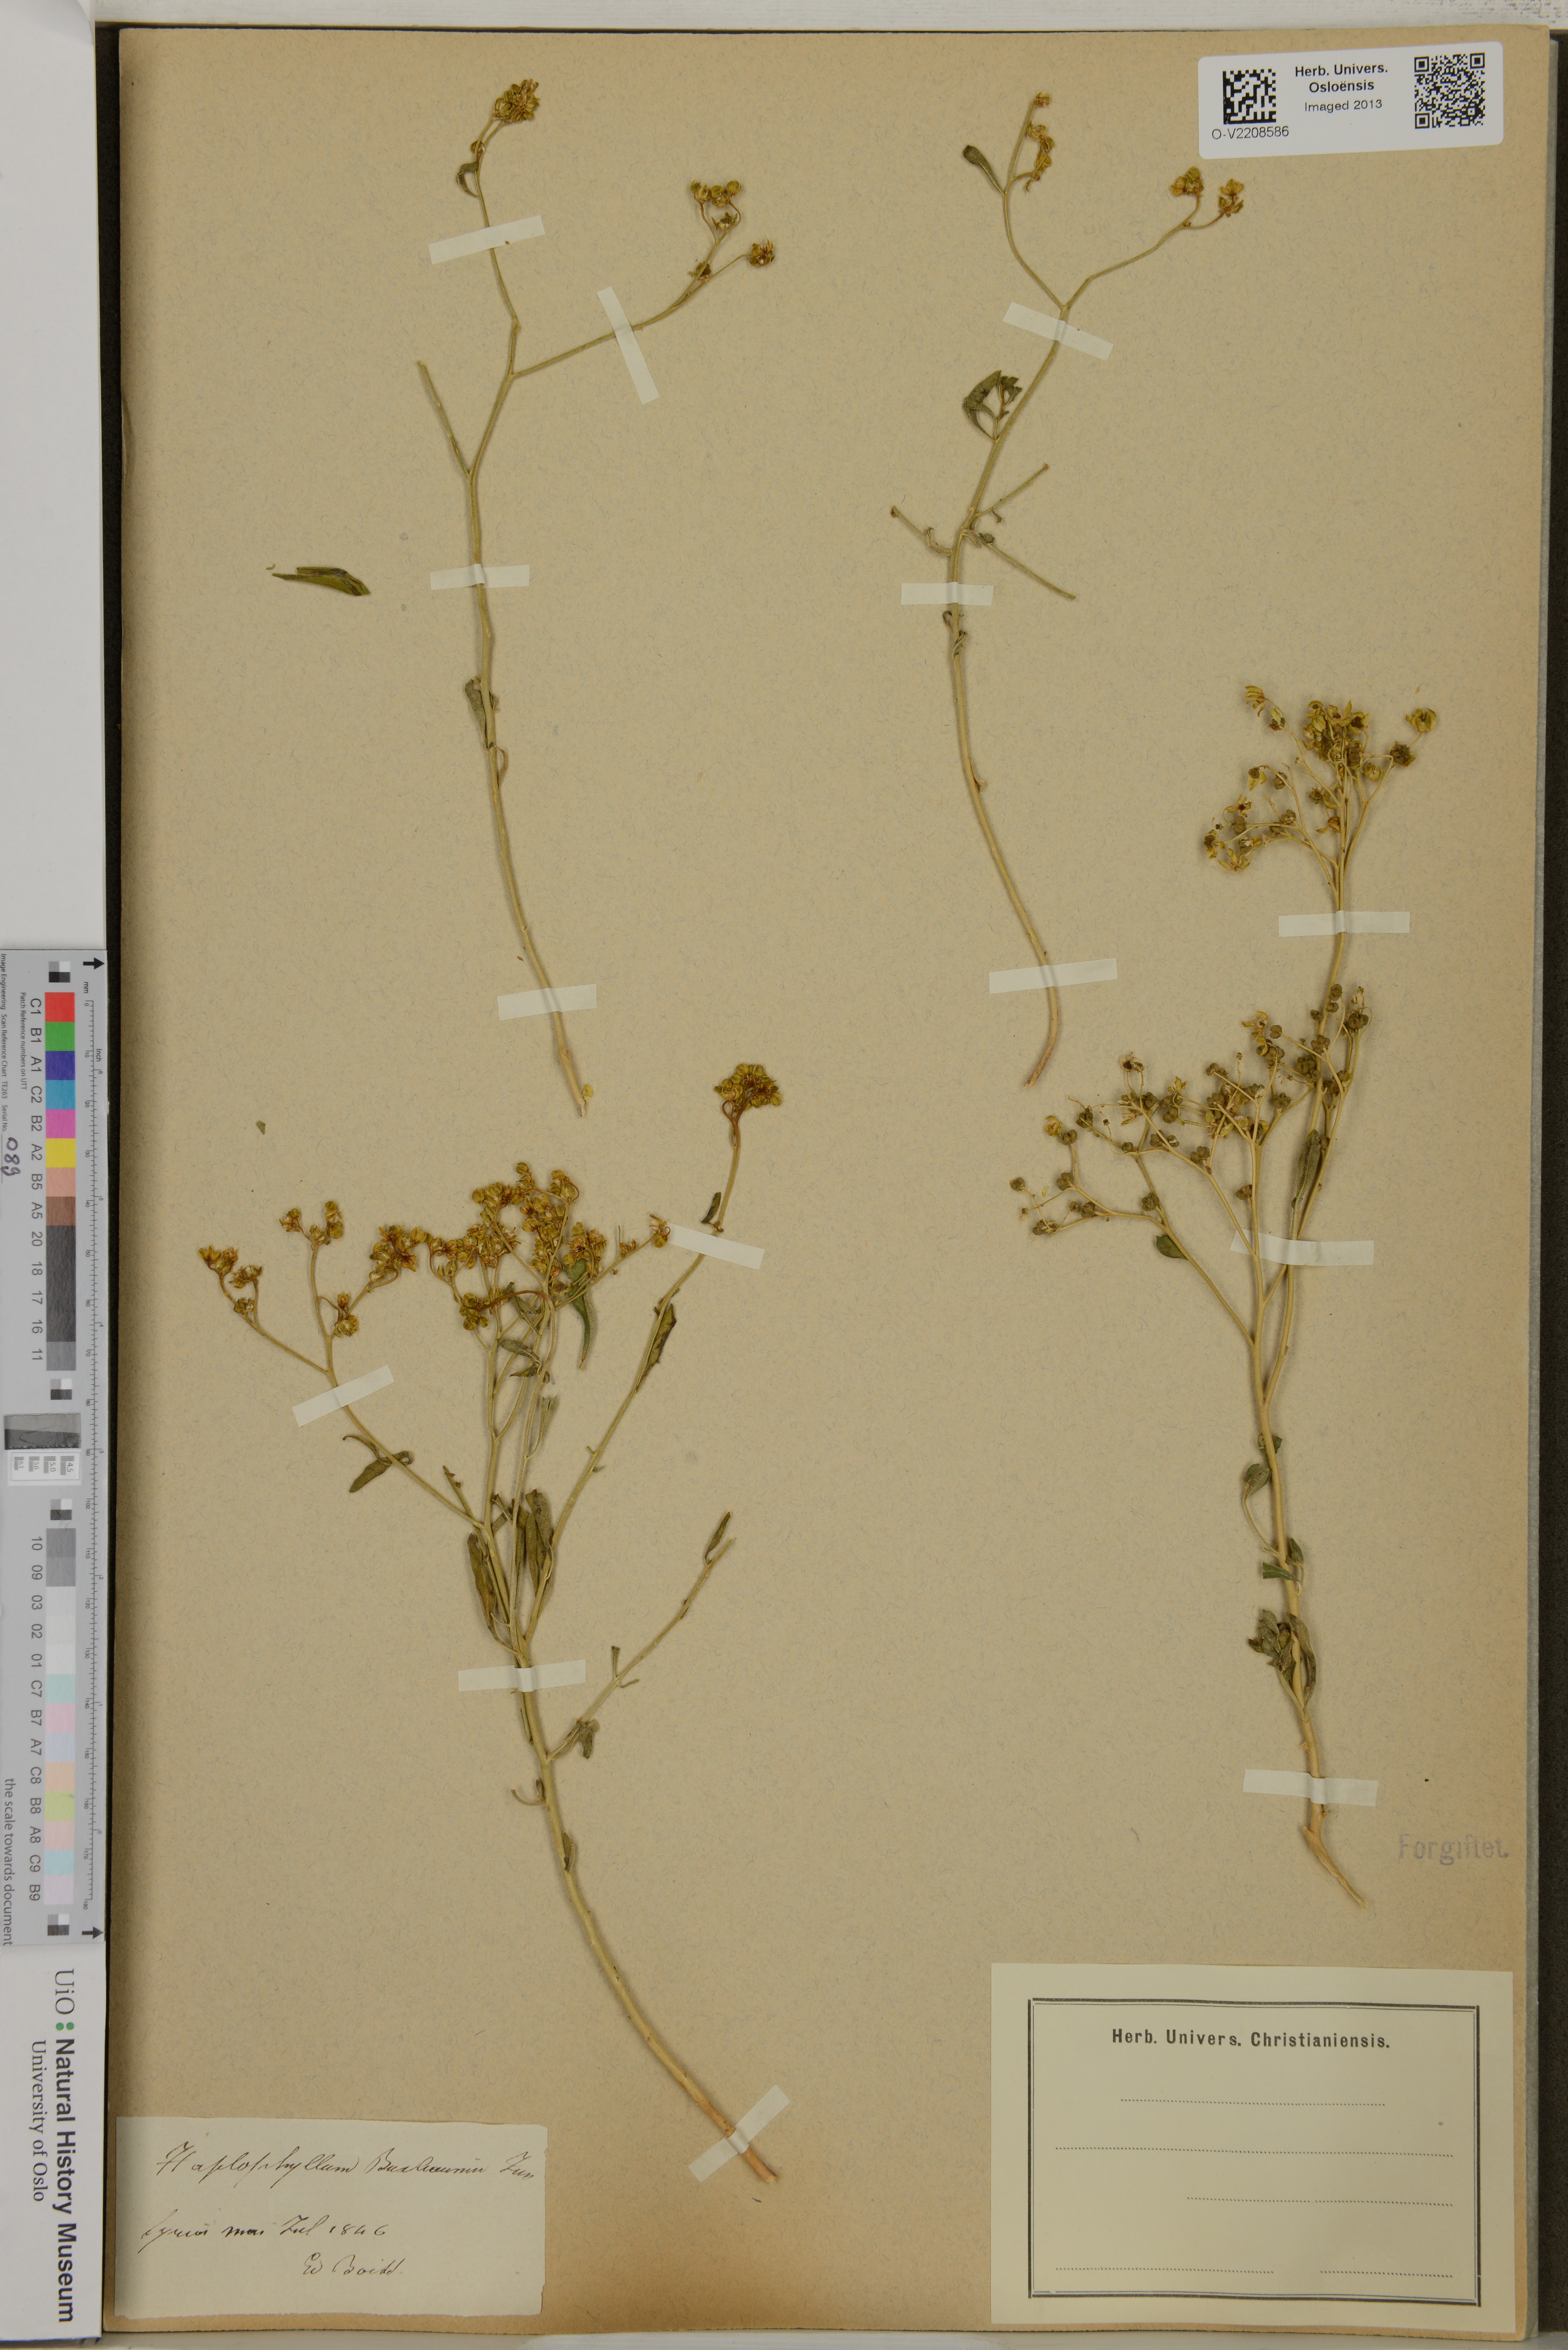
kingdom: Plantae
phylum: Tracheophyta
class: Magnoliopsida
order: Sapindales
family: Rutaceae
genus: Haplophyllum
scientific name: Haplophyllum balcanicum
